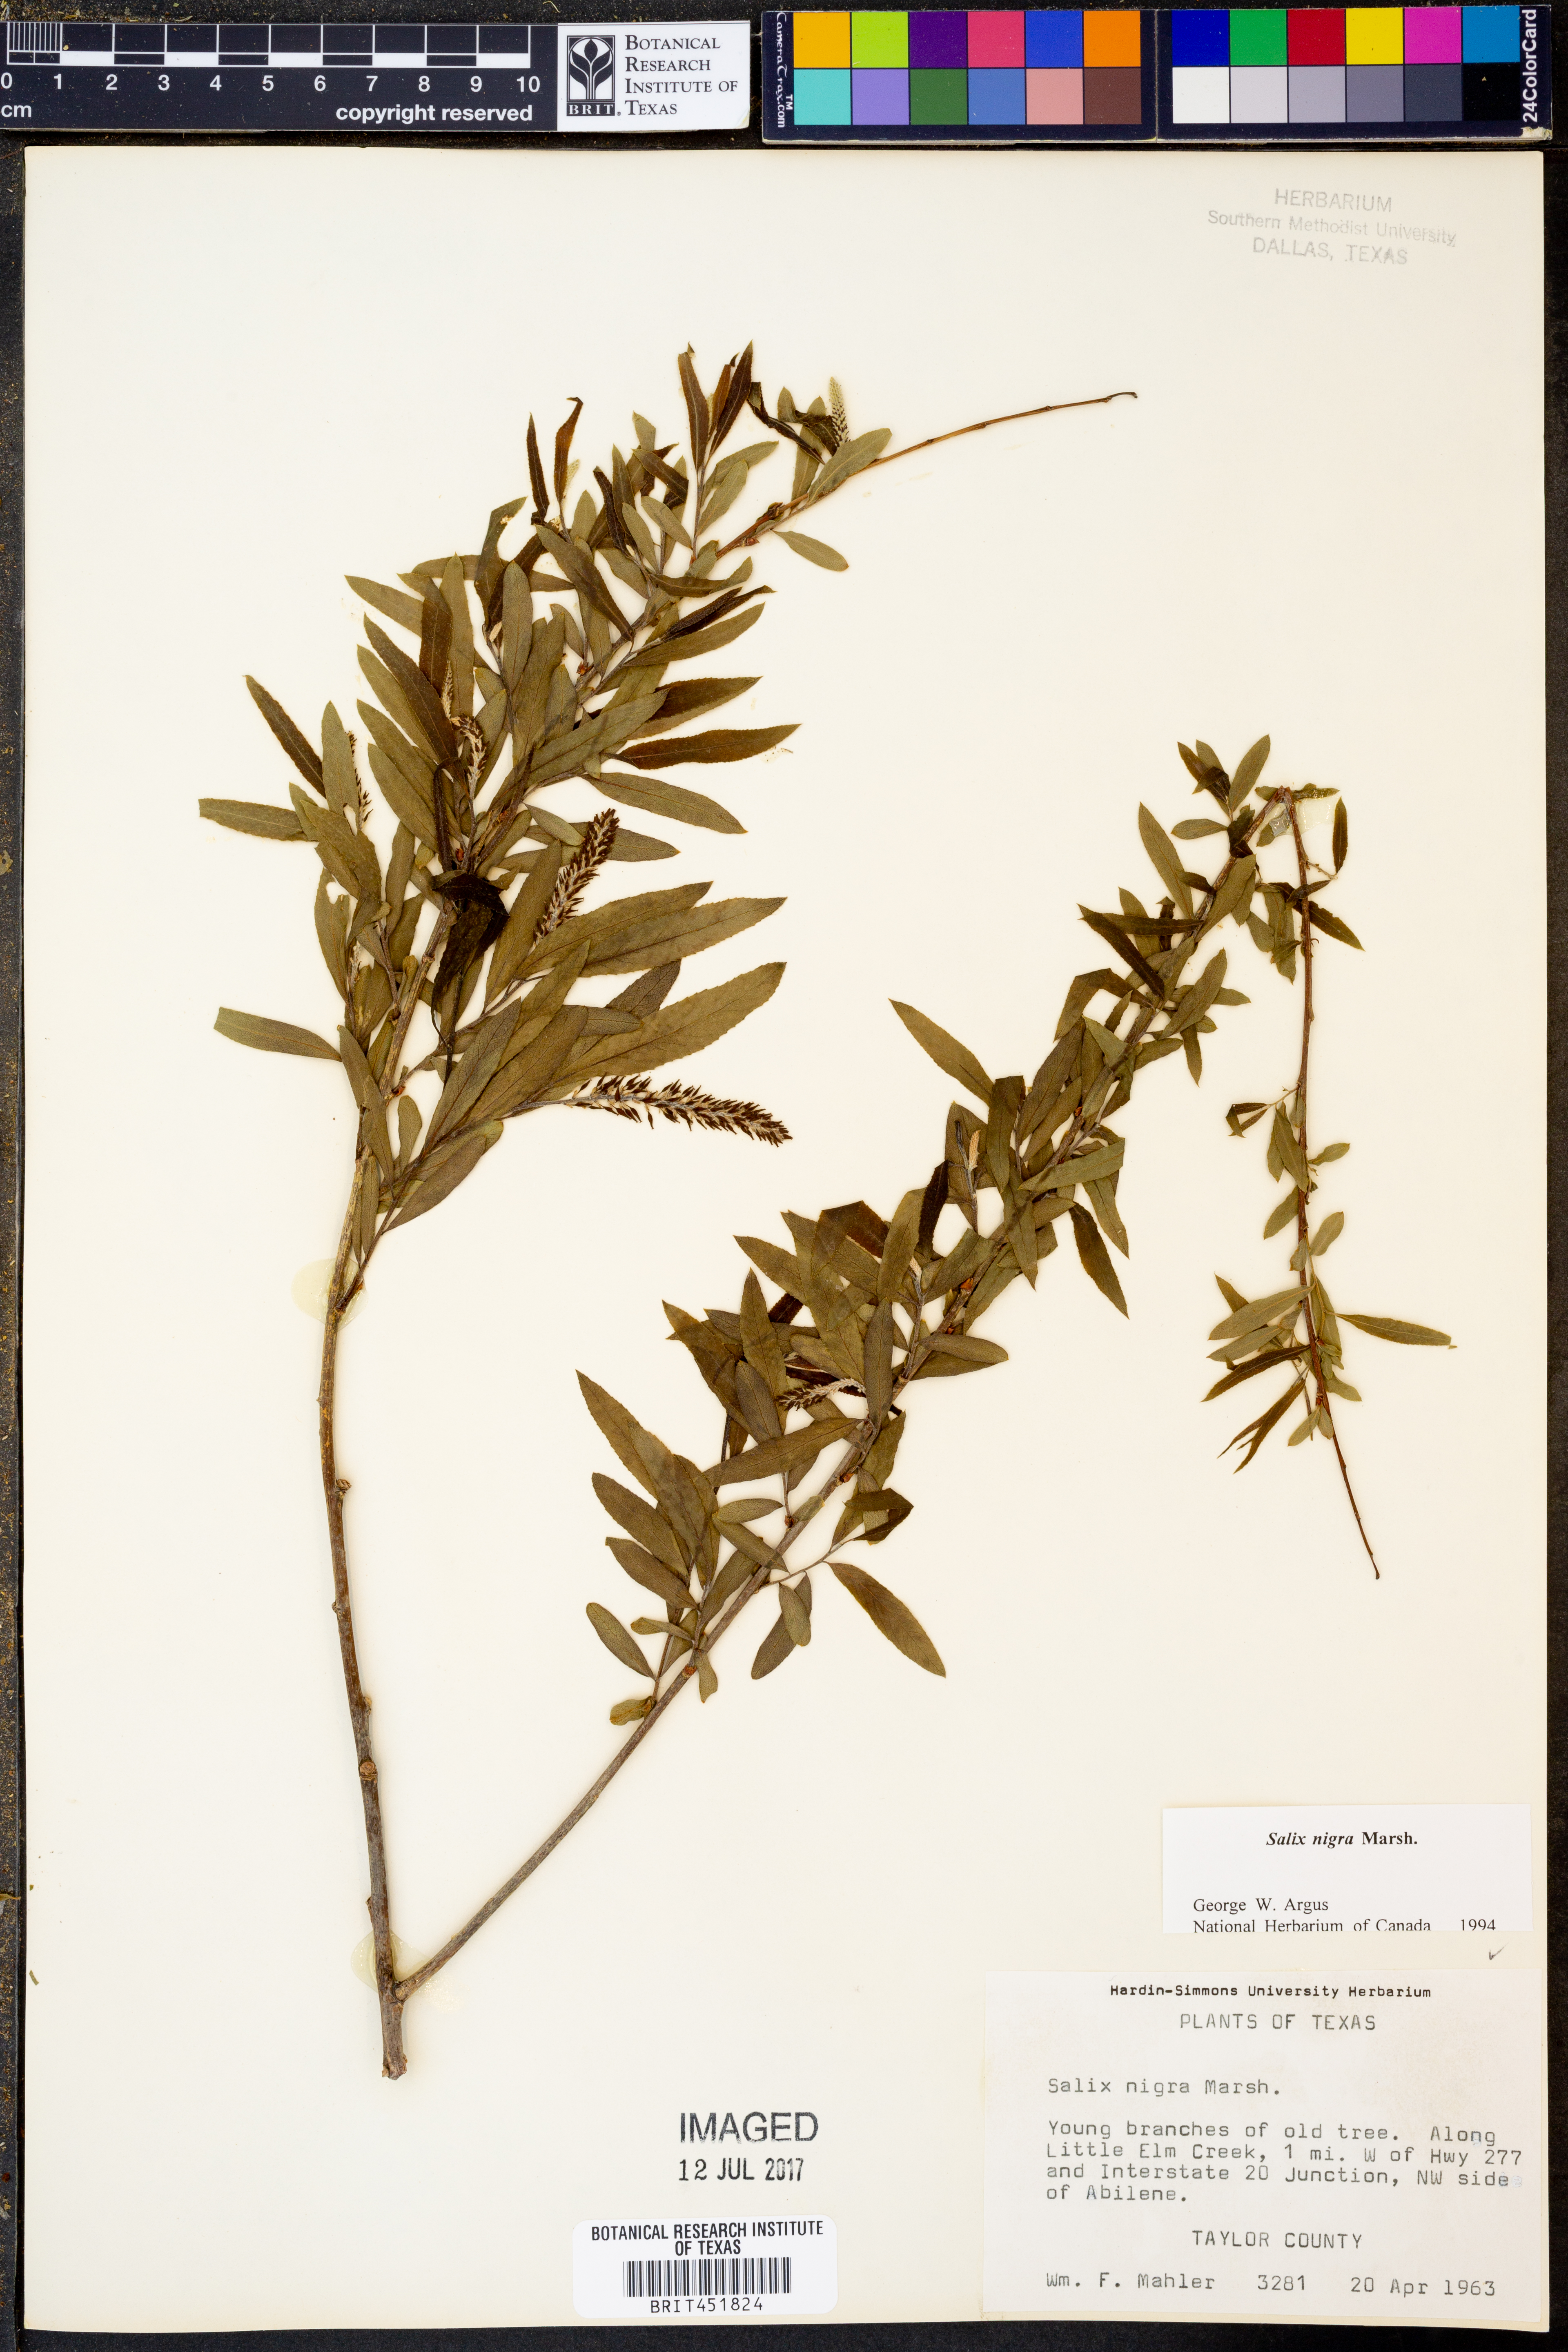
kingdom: Plantae
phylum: Tracheophyta
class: Magnoliopsida
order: Malpighiales
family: Salicaceae
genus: Salix
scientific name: Salix nigra
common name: Black willow
